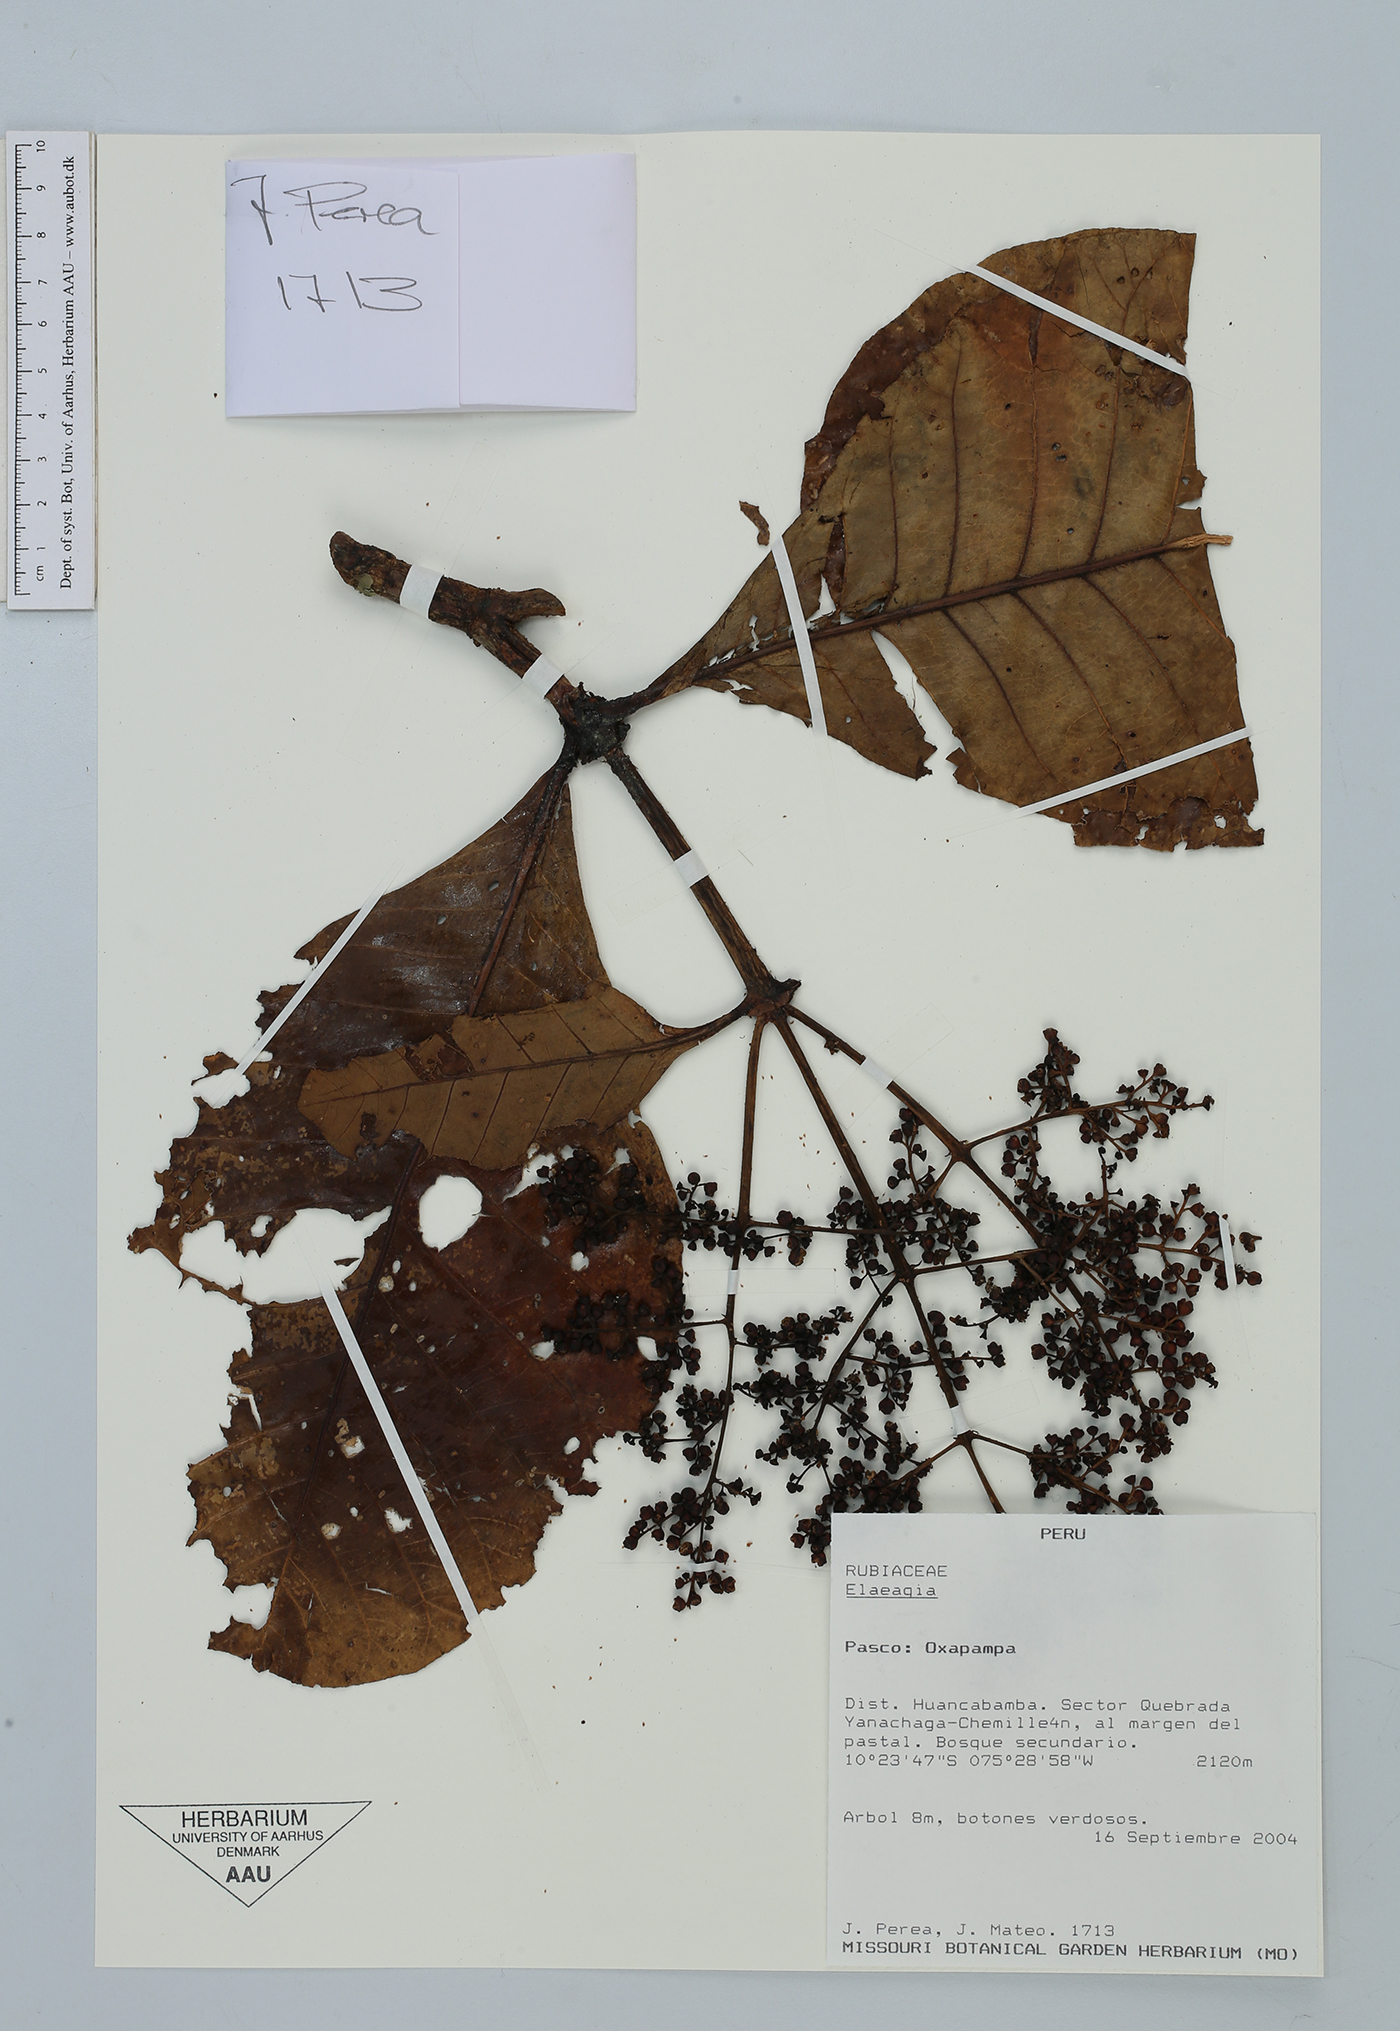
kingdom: Plantae
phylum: Tracheophyta
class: Magnoliopsida
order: Gentianales
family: Rubiaceae
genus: Elaeagia
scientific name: Elaeagia
